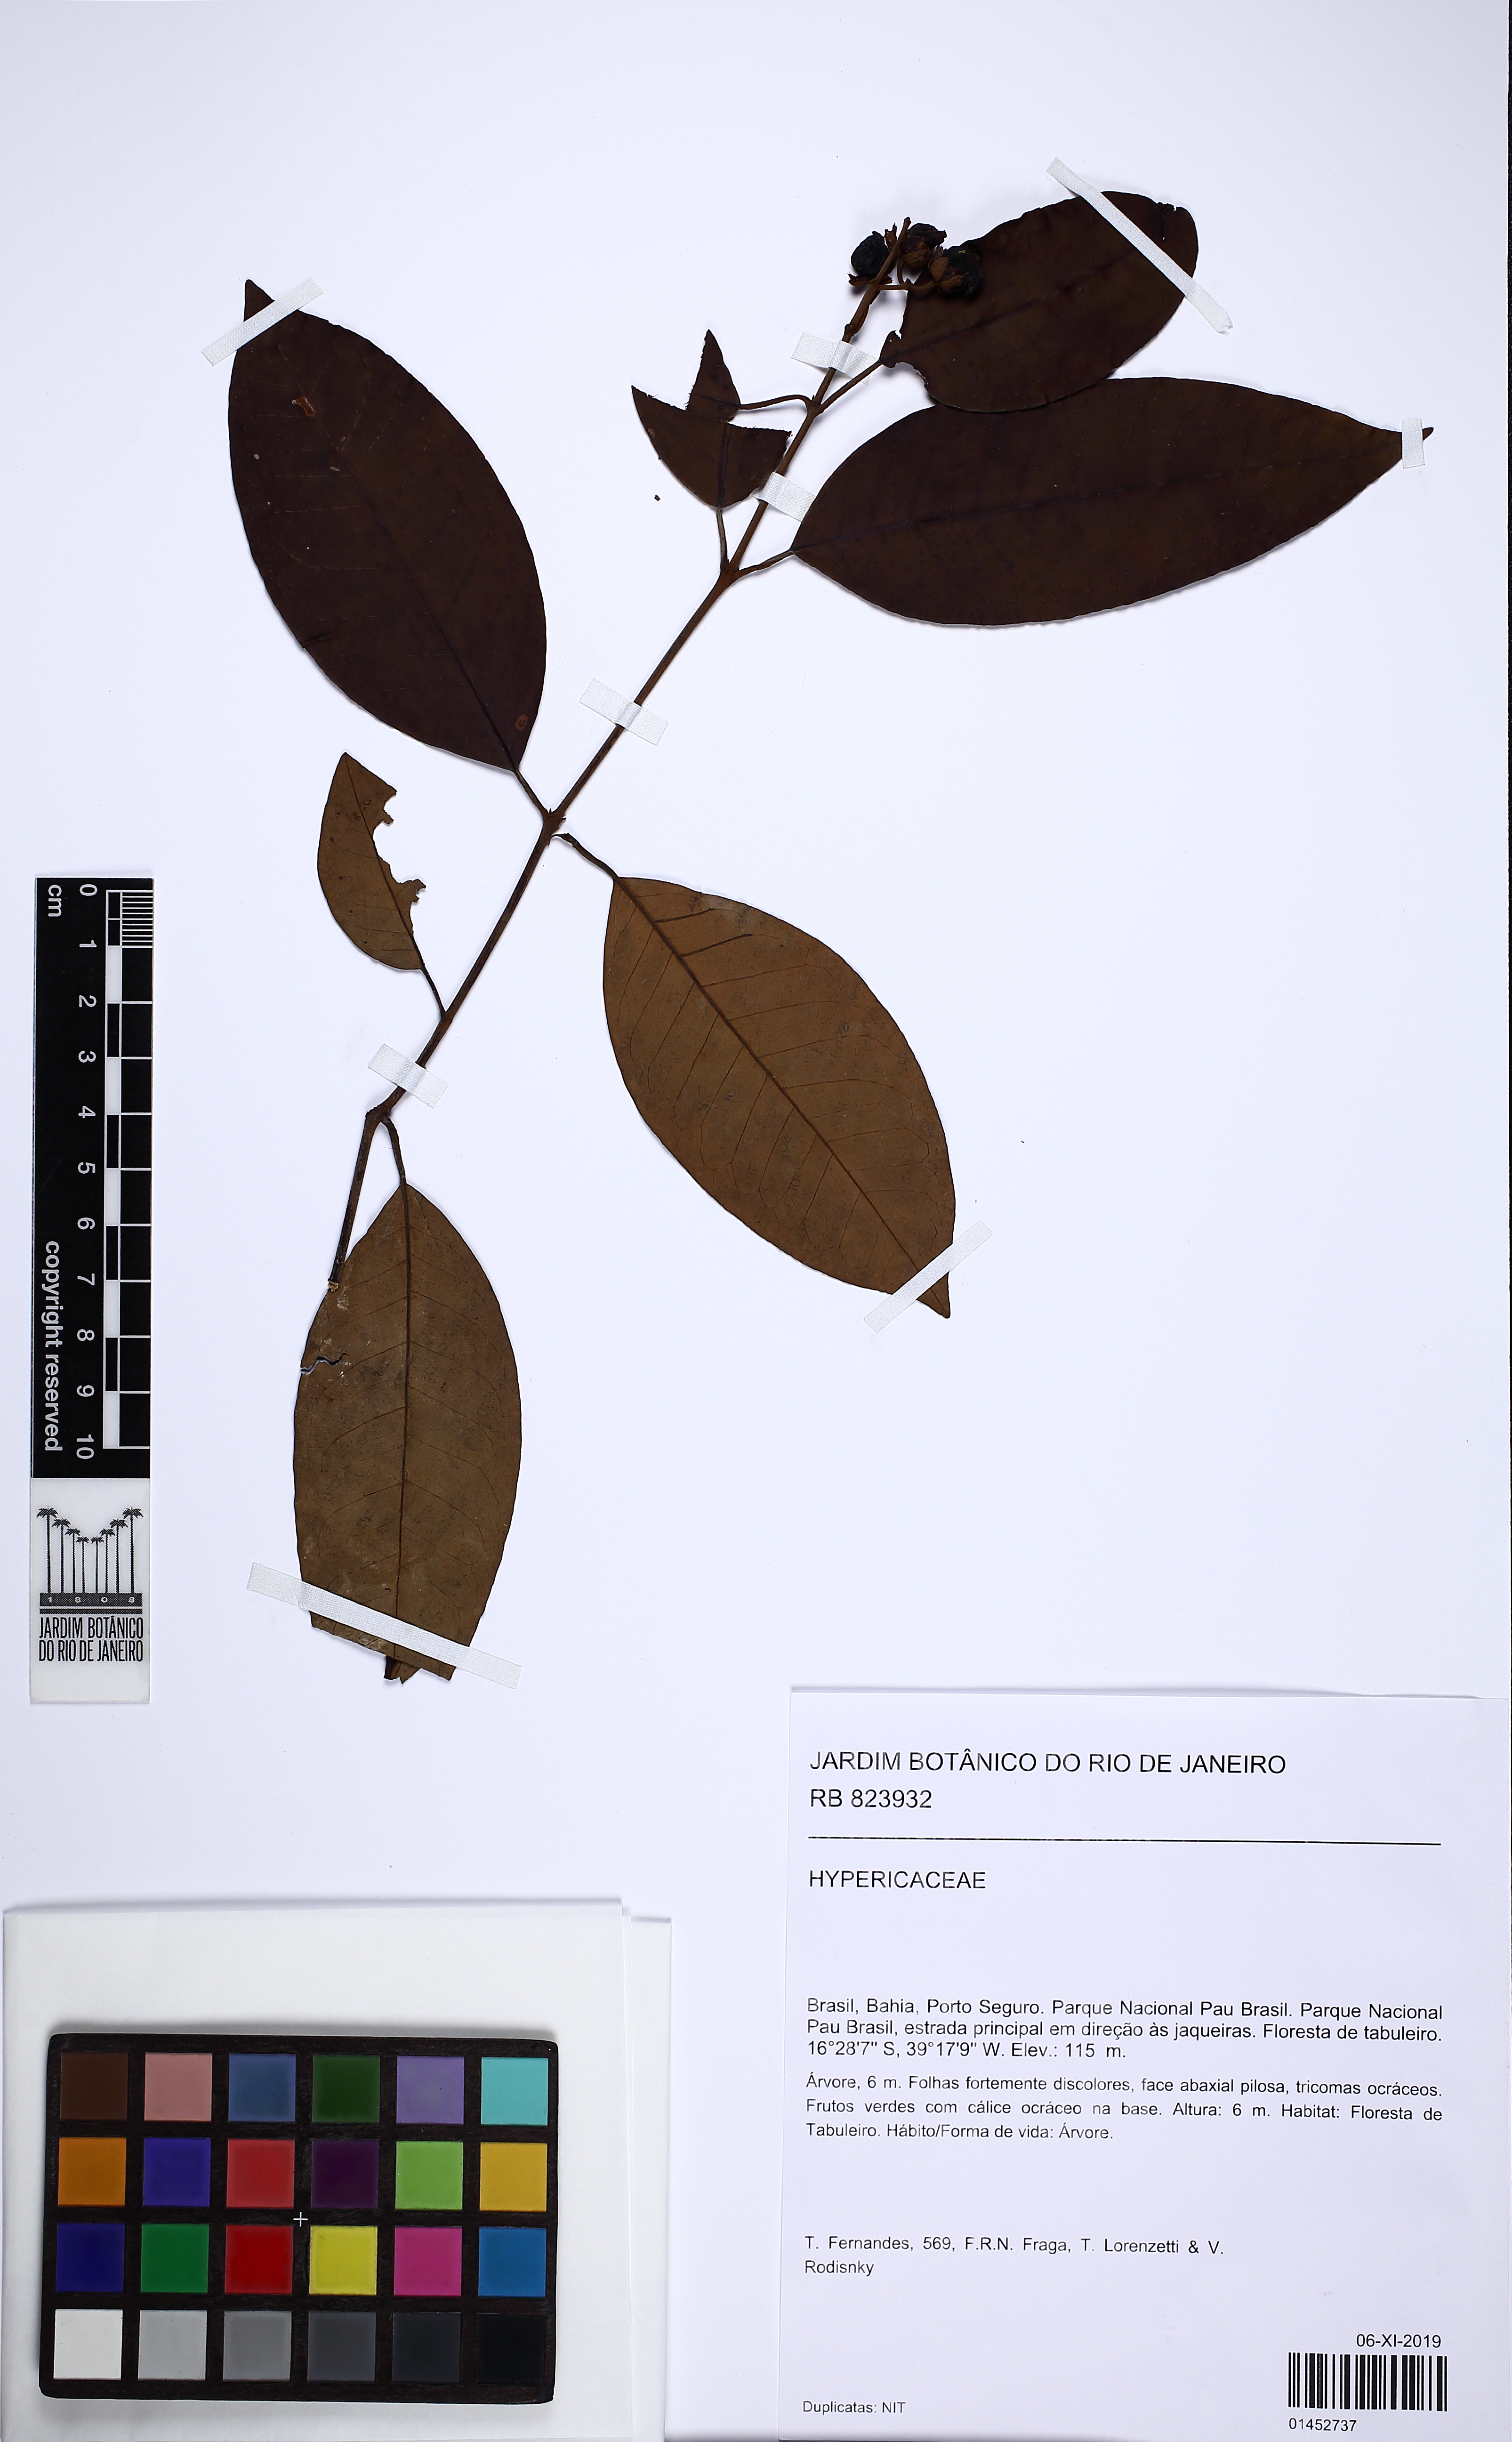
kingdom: Plantae
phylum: Tracheophyta
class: Magnoliopsida
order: Malpighiales
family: Hypericaceae
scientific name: Hypericaceae
